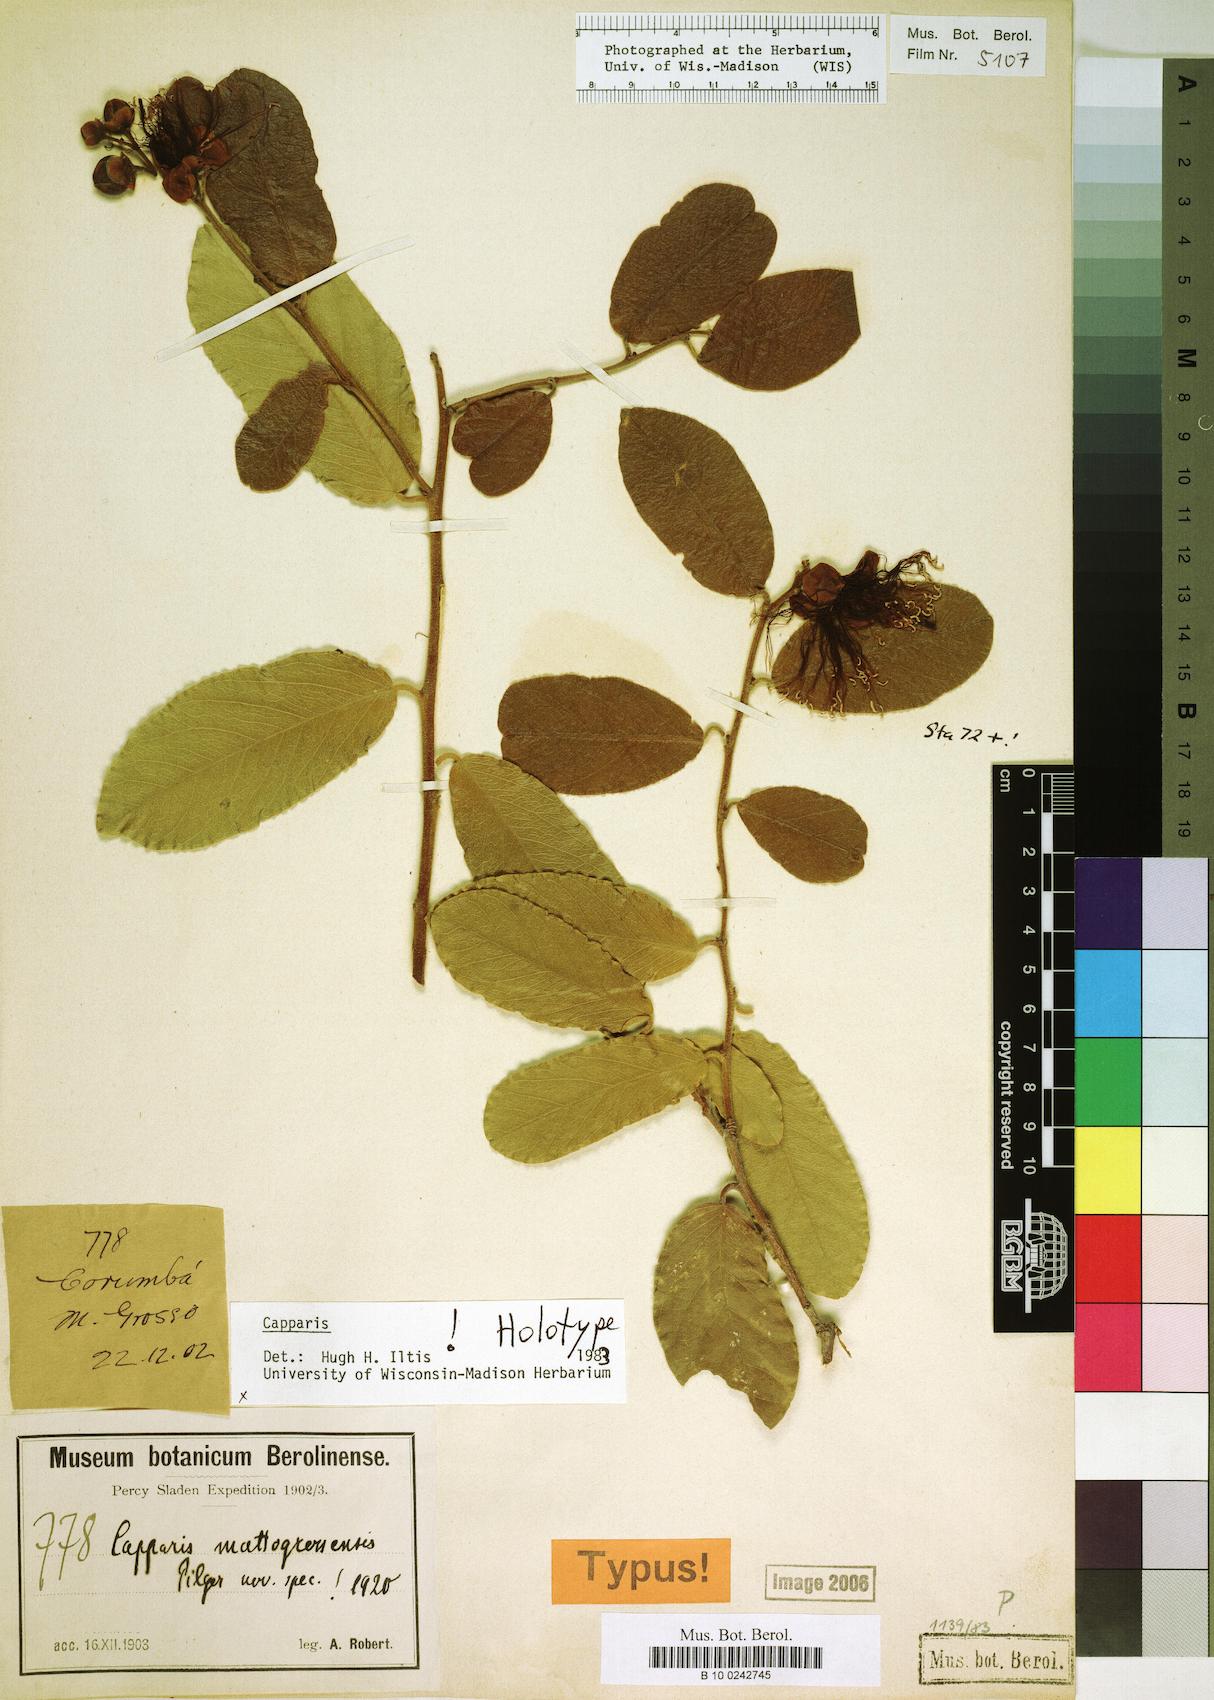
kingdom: Plantae
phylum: Tracheophyta
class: Magnoliopsida
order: Brassicales
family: Capparaceae
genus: Cynophalla
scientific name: Cynophalla mattogrossensis
